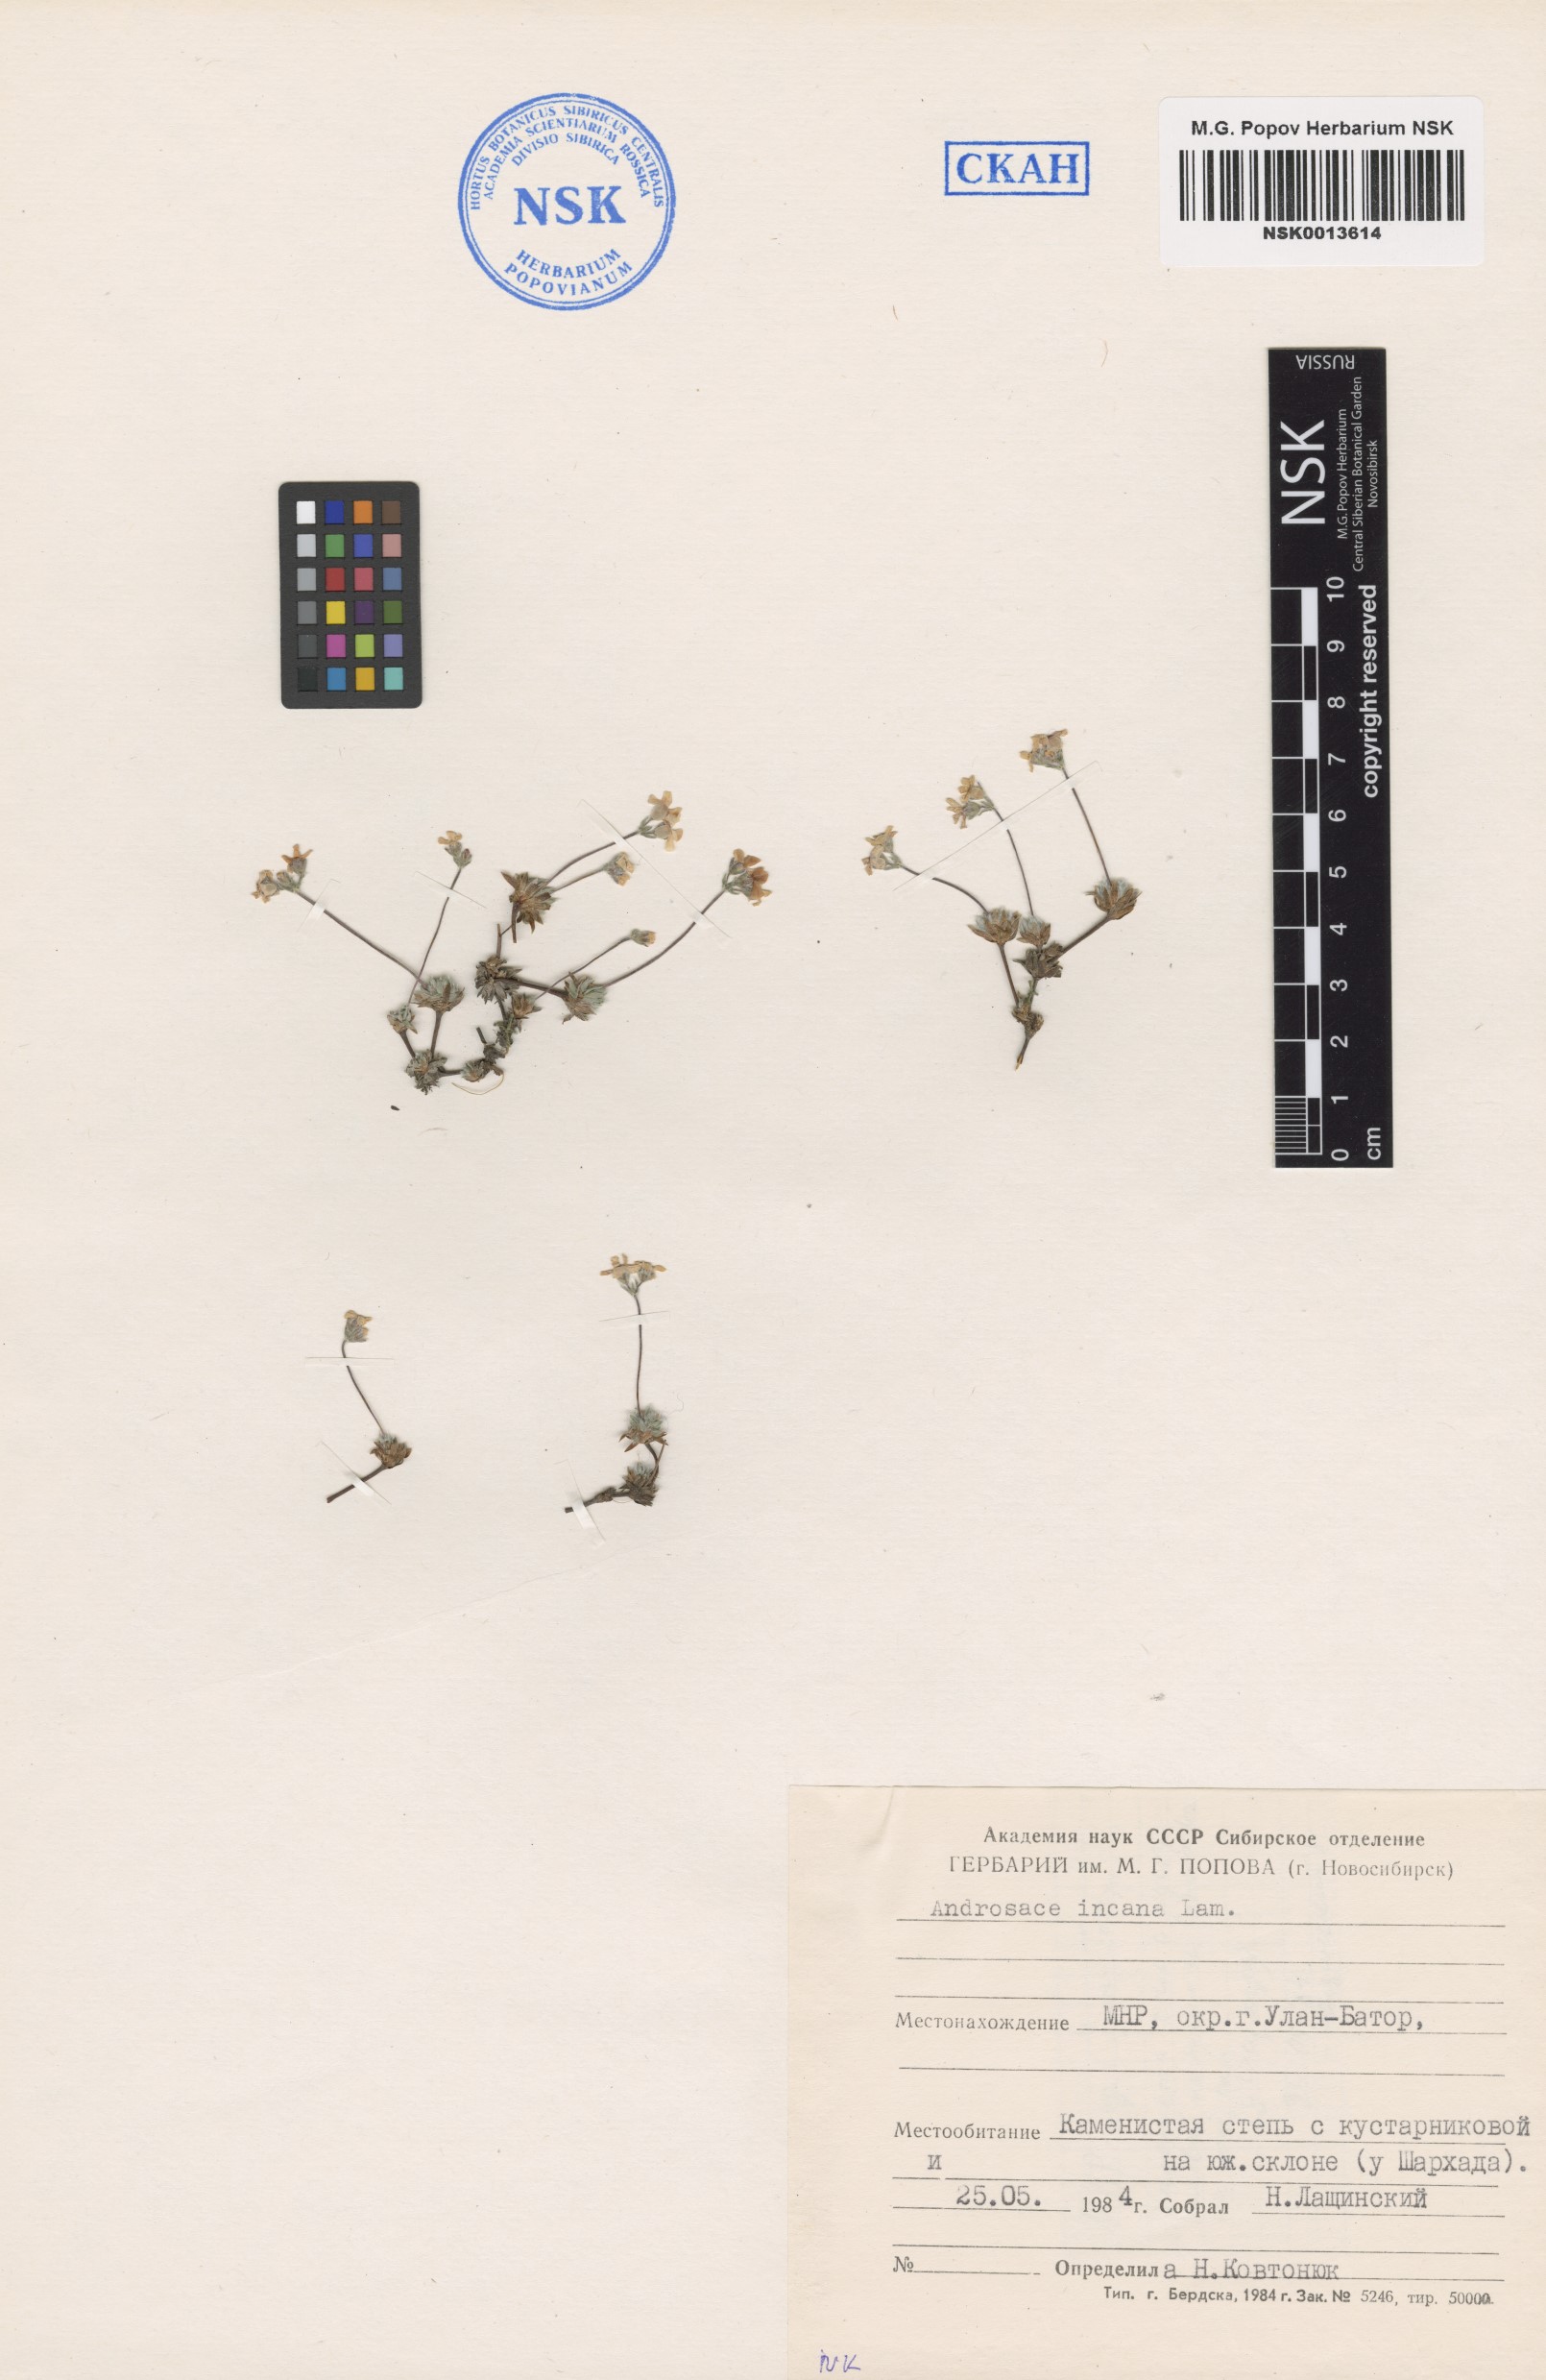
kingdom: Plantae
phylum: Tracheophyta
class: Magnoliopsida
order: Ericales
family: Primulaceae
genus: Androsace
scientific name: Androsace incana
